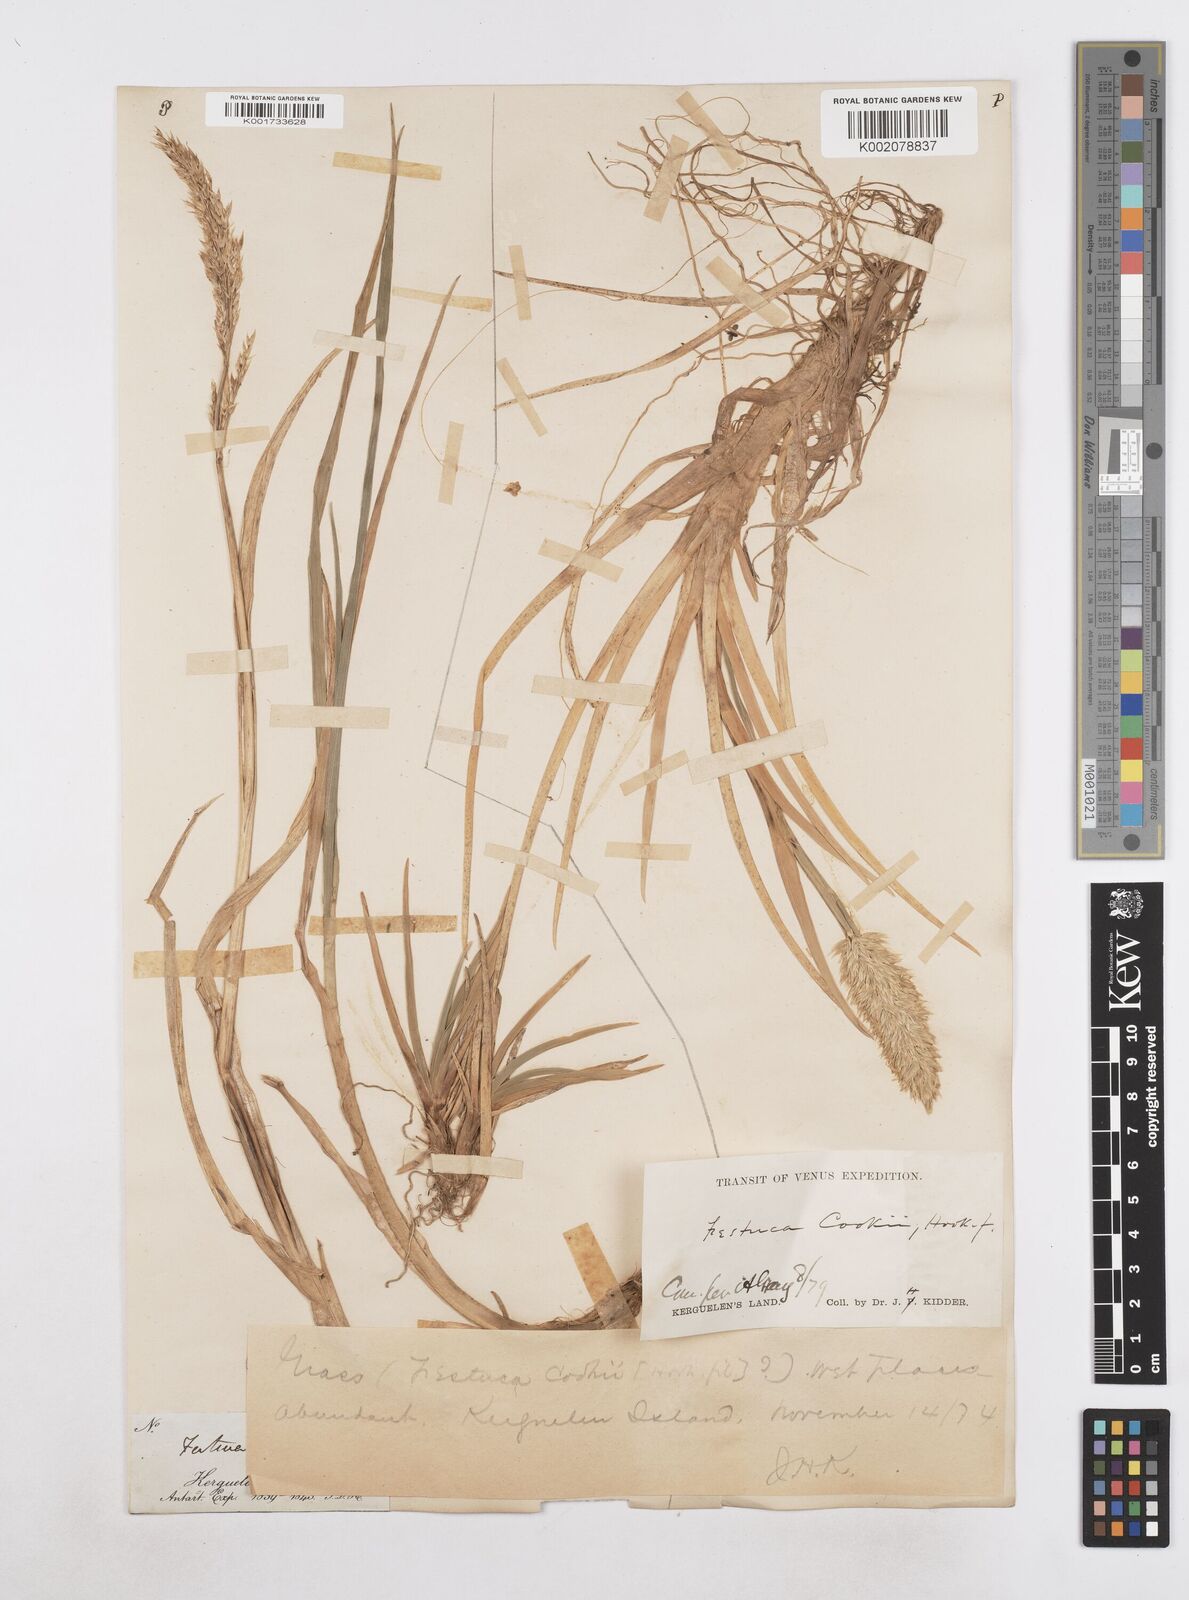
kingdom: Plantae
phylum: Tracheophyta
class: Liliopsida
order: Poales
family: Poaceae
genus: Poa
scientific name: Poa cookii
